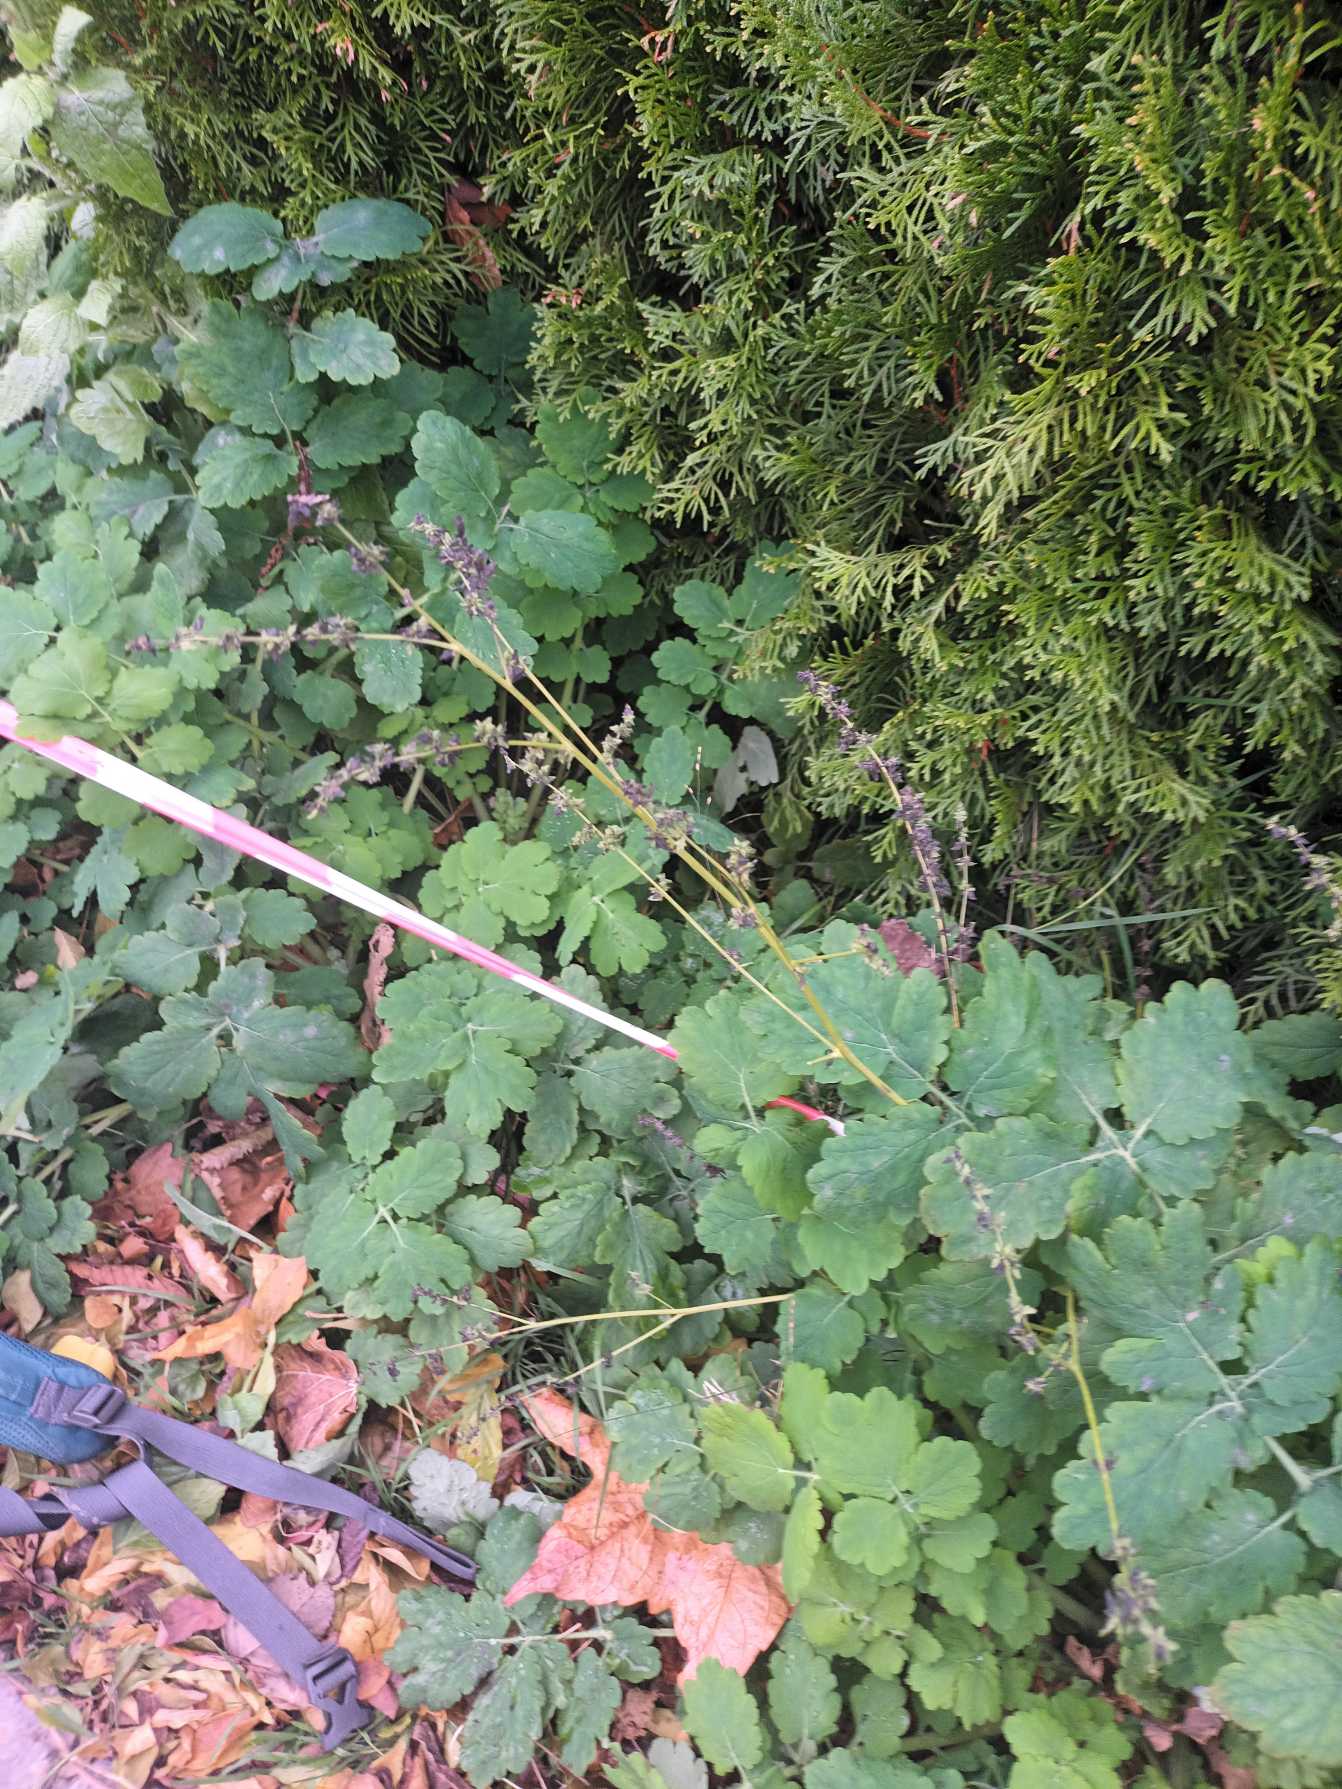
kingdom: Plantae
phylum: Tracheophyta
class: Magnoliopsida
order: Caryophyllales
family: Amaranthaceae
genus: Atriplex
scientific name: Atriplex patula
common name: Svine-mælde
